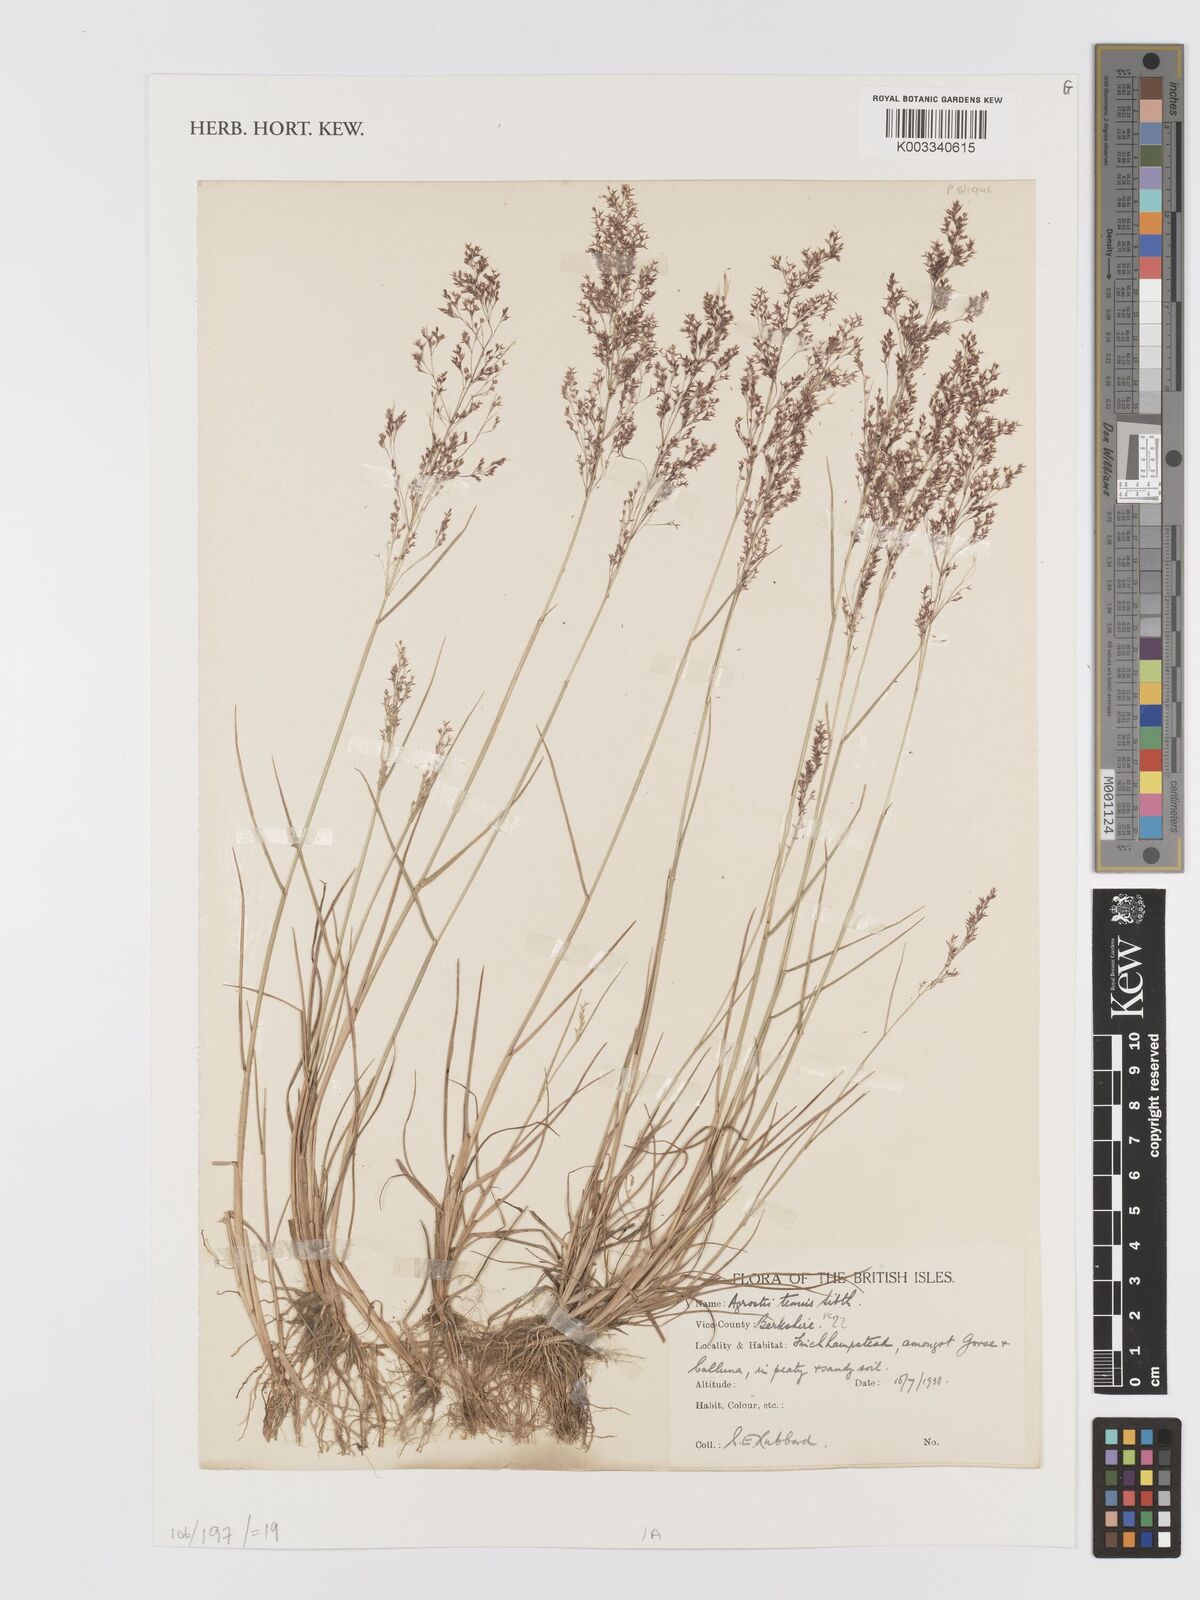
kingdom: Plantae
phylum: Tracheophyta
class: Liliopsida
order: Poales
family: Poaceae
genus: Agrostis
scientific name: Agrostis capillaris
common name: Colonial bentgrass
